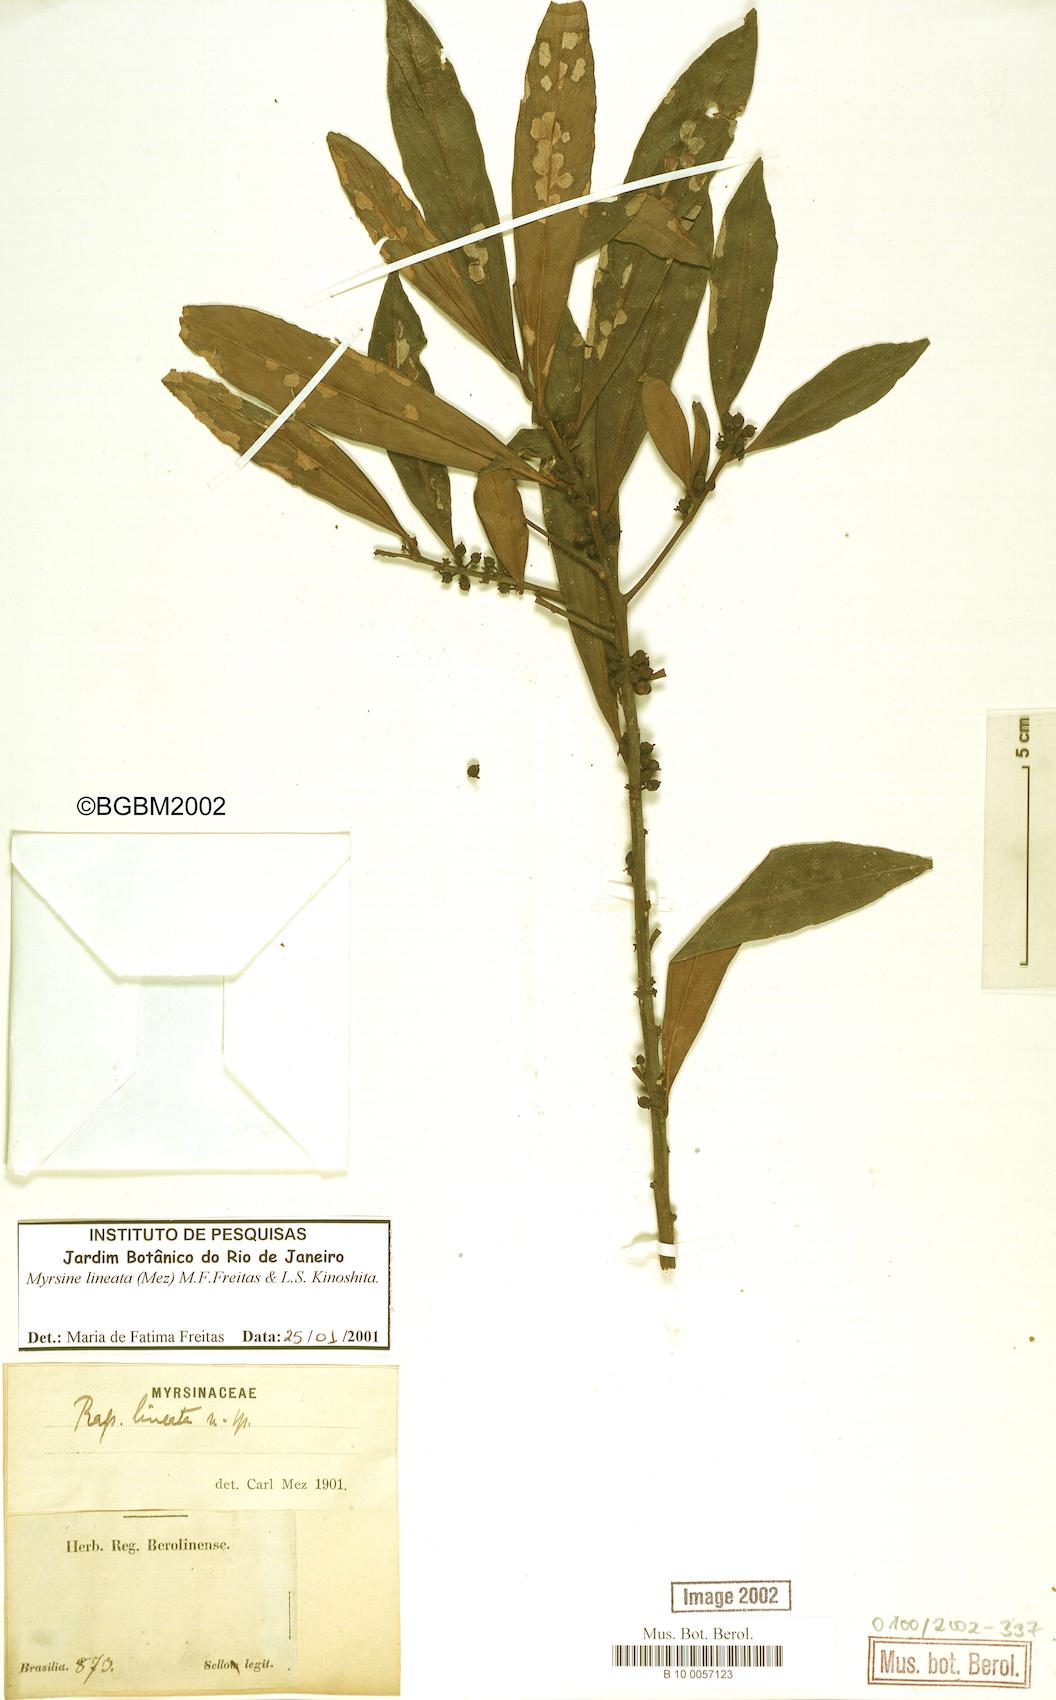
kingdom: Plantae
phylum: Tracheophyta
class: Magnoliopsida
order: Ericales
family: Primulaceae
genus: Myrsine
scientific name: Myrsine lineata
